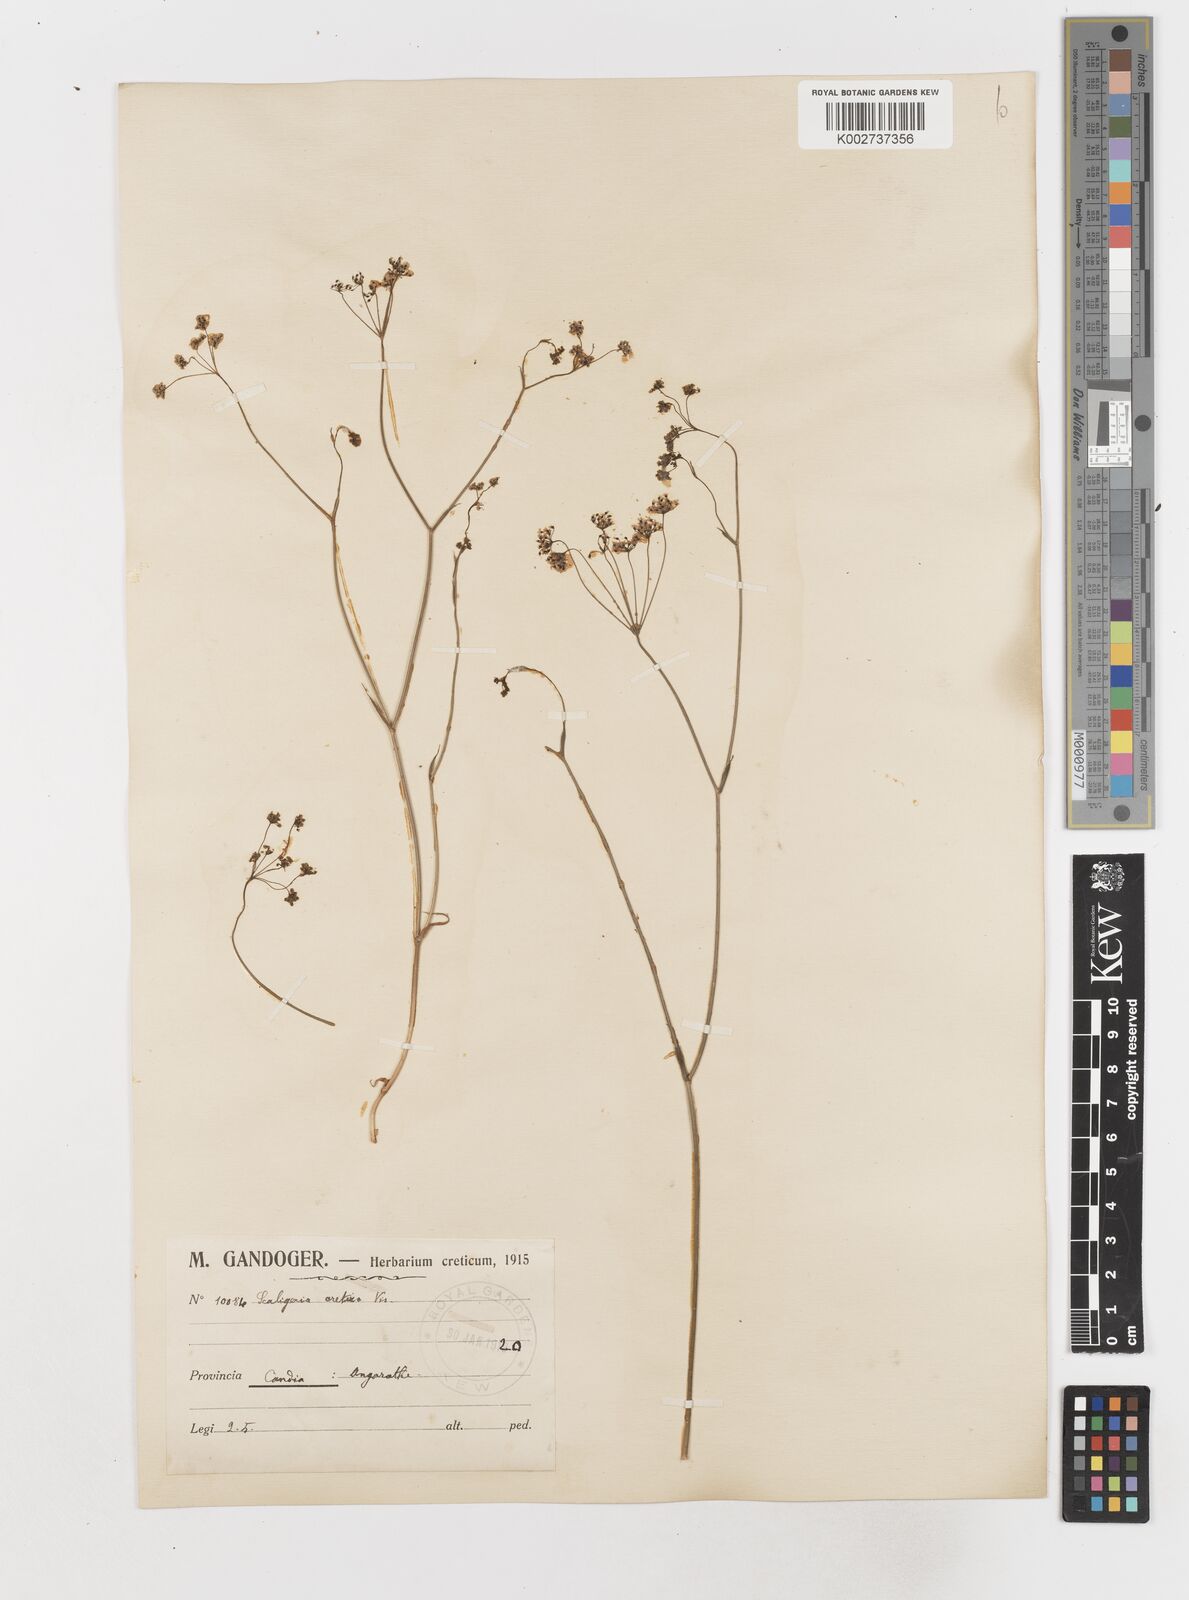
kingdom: Plantae
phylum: Tracheophyta
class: Magnoliopsida
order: Apiales
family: Apiaceae
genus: Scaligeria
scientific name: Scaligeria napiformis
